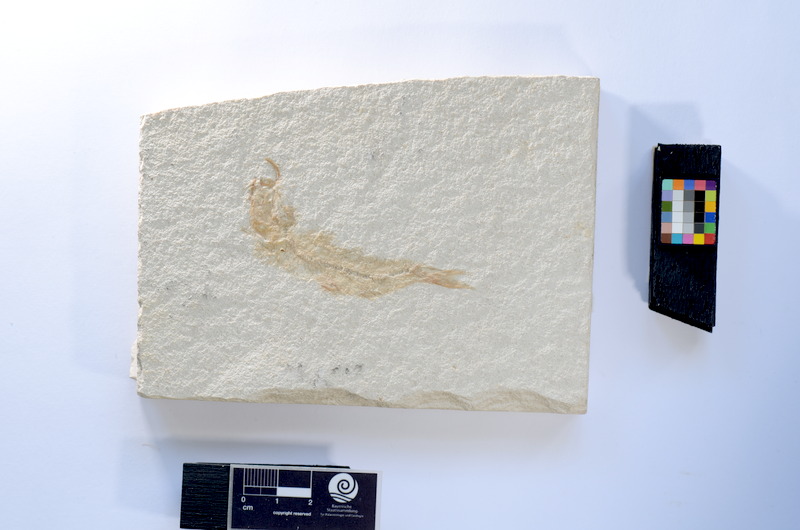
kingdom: Animalia
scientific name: Animalia
